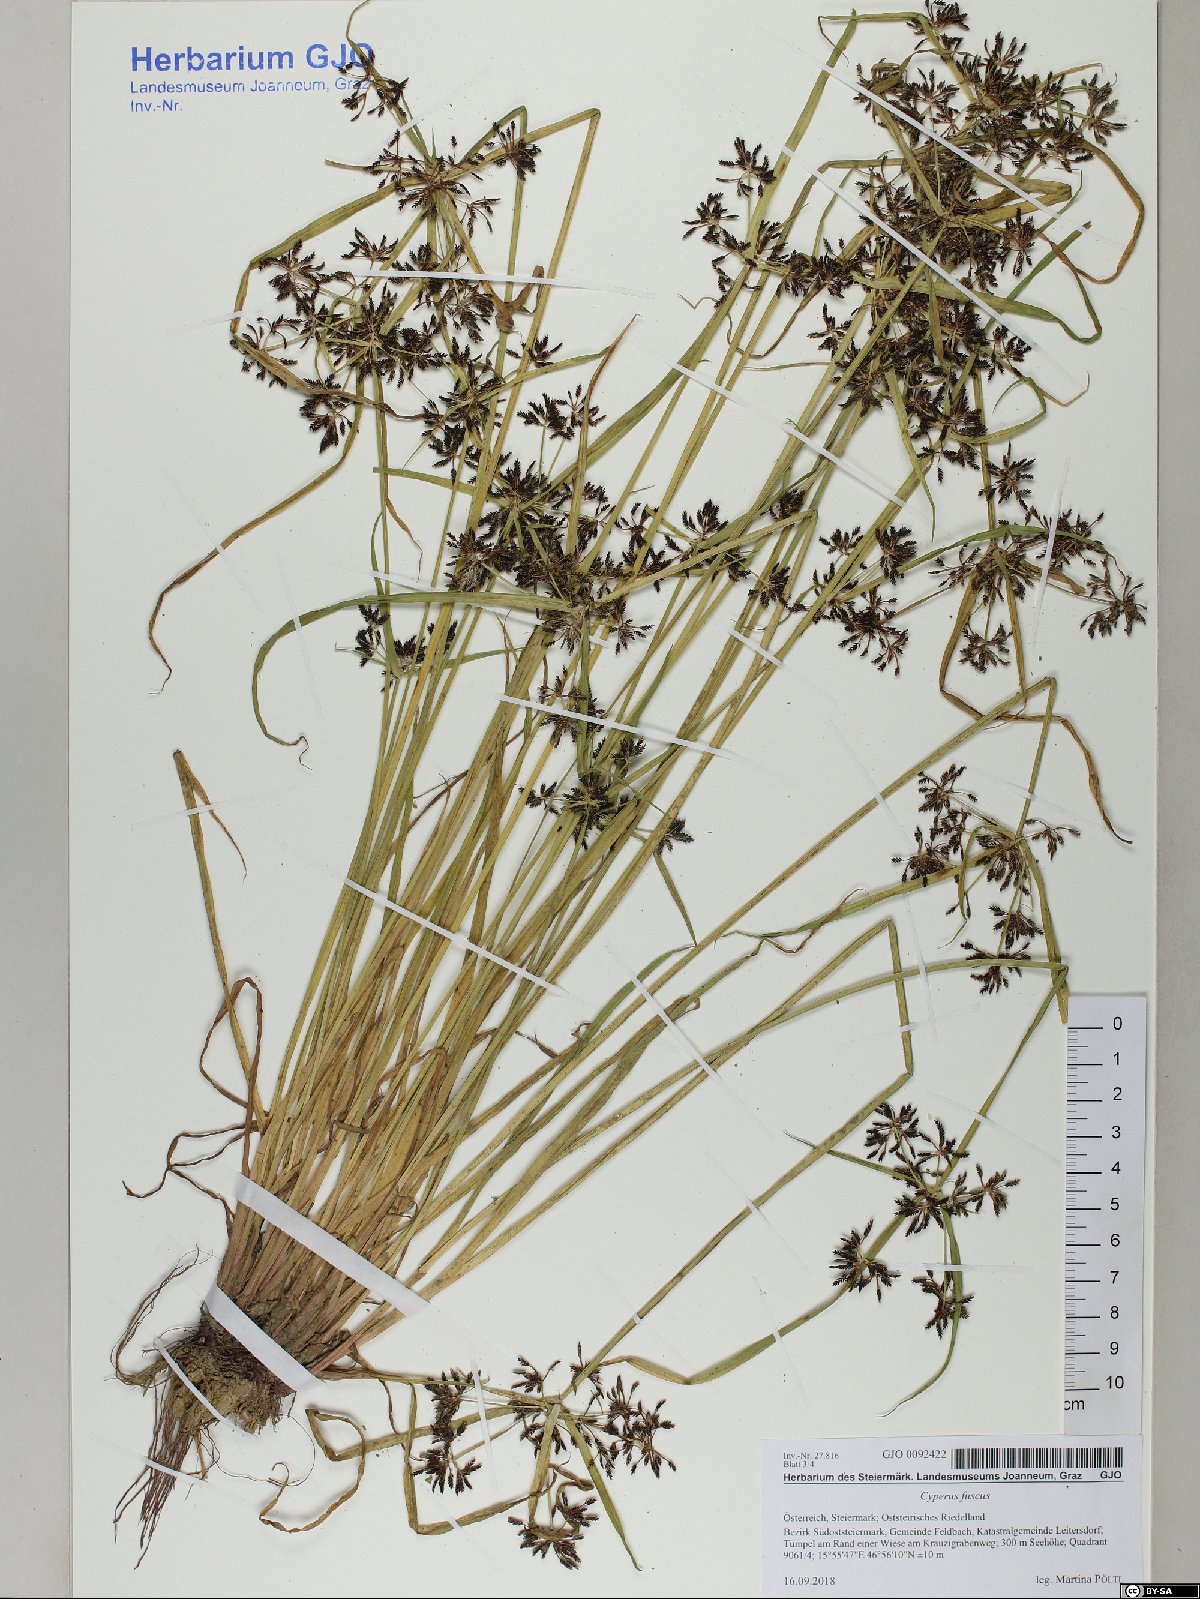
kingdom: Plantae
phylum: Tracheophyta
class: Liliopsida
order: Poales
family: Cyperaceae
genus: Cyperus
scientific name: Cyperus fuscus
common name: Brown galingale
